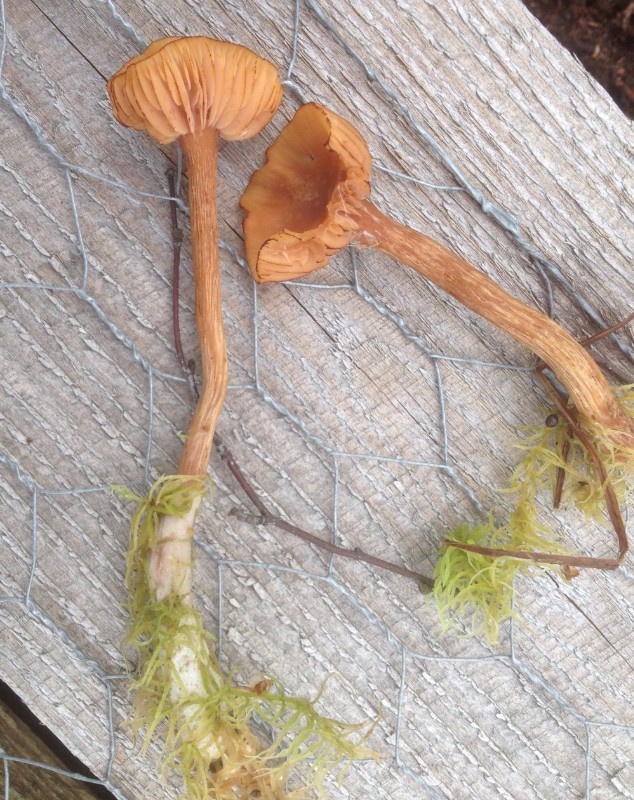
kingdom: Fungi
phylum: Basidiomycota
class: Agaricomycetes
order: Agaricales
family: Hydnangiaceae
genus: Laccaria
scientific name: Laccaria proxima
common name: stor ametysthat
